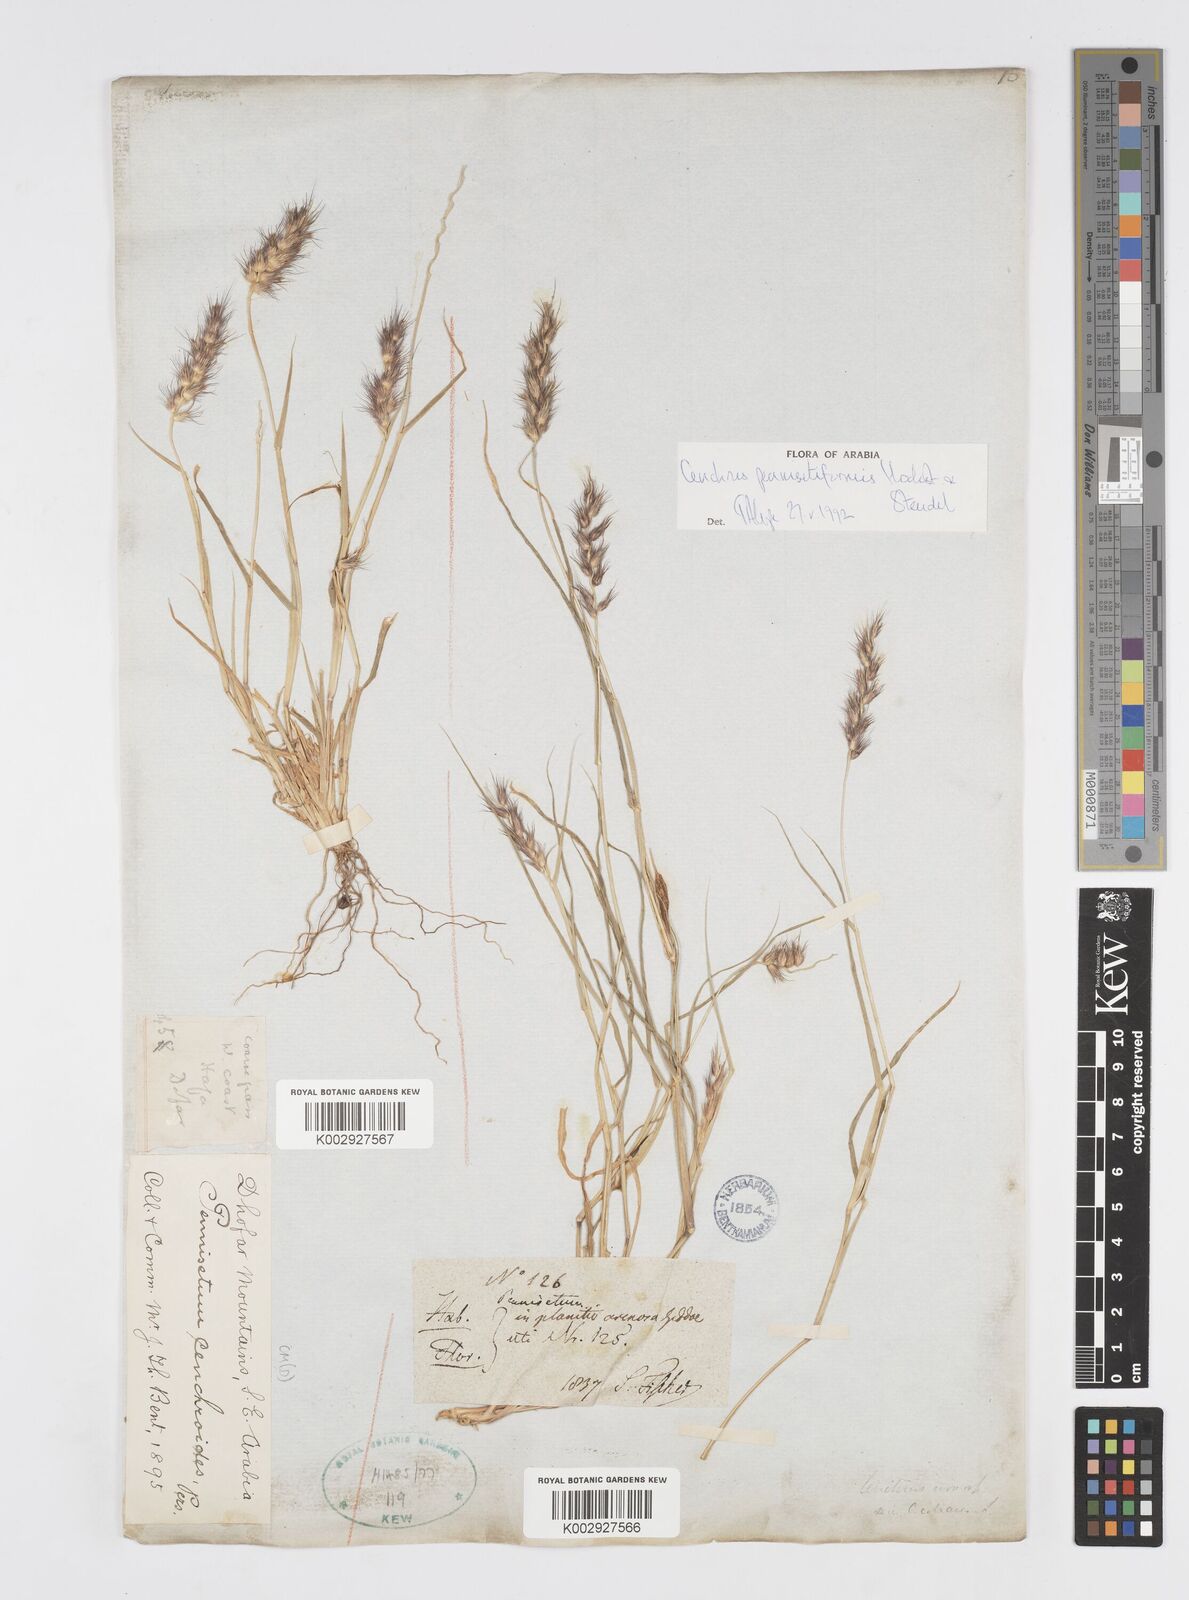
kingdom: Plantae
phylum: Tracheophyta
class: Liliopsida
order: Poales
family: Poaceae
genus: Cenchrus
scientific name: Cenchrus pennisetiformis
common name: Cloncurry
